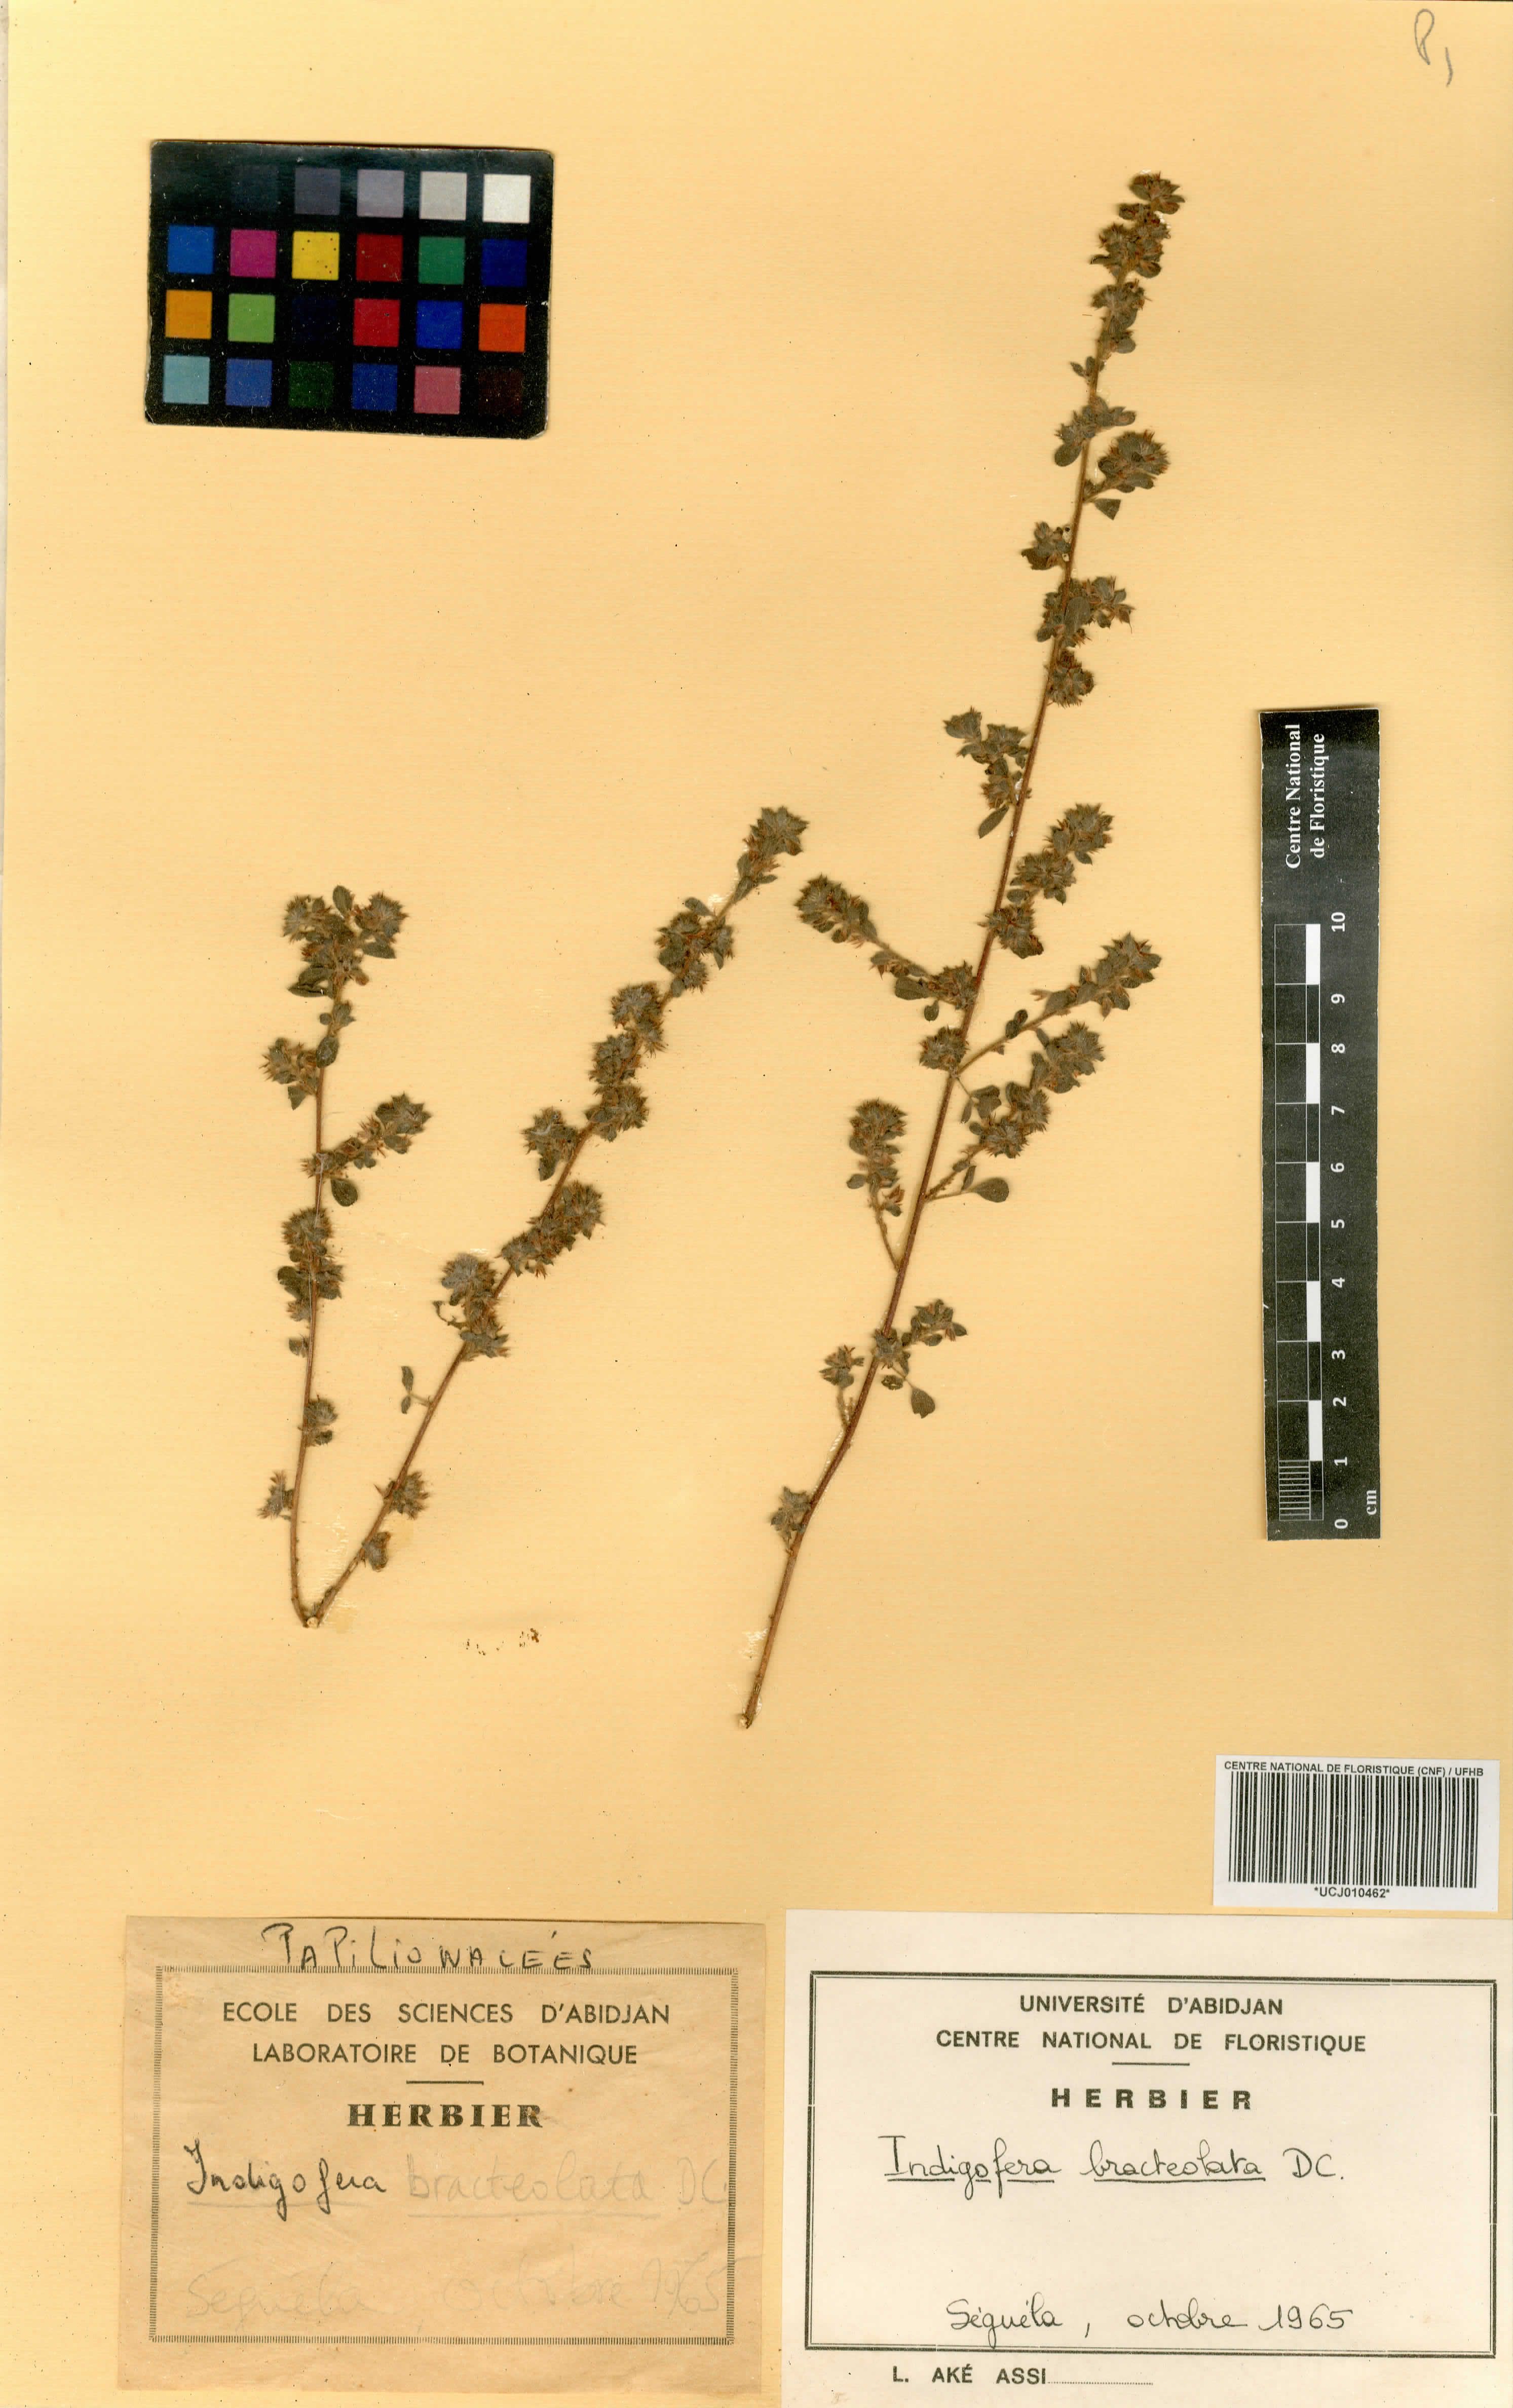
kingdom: Plantae
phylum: Tracheophyta
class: Magnoliopsida
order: Fabales
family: Fabaceae
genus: Indigofera
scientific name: Indigofera bracteolata
